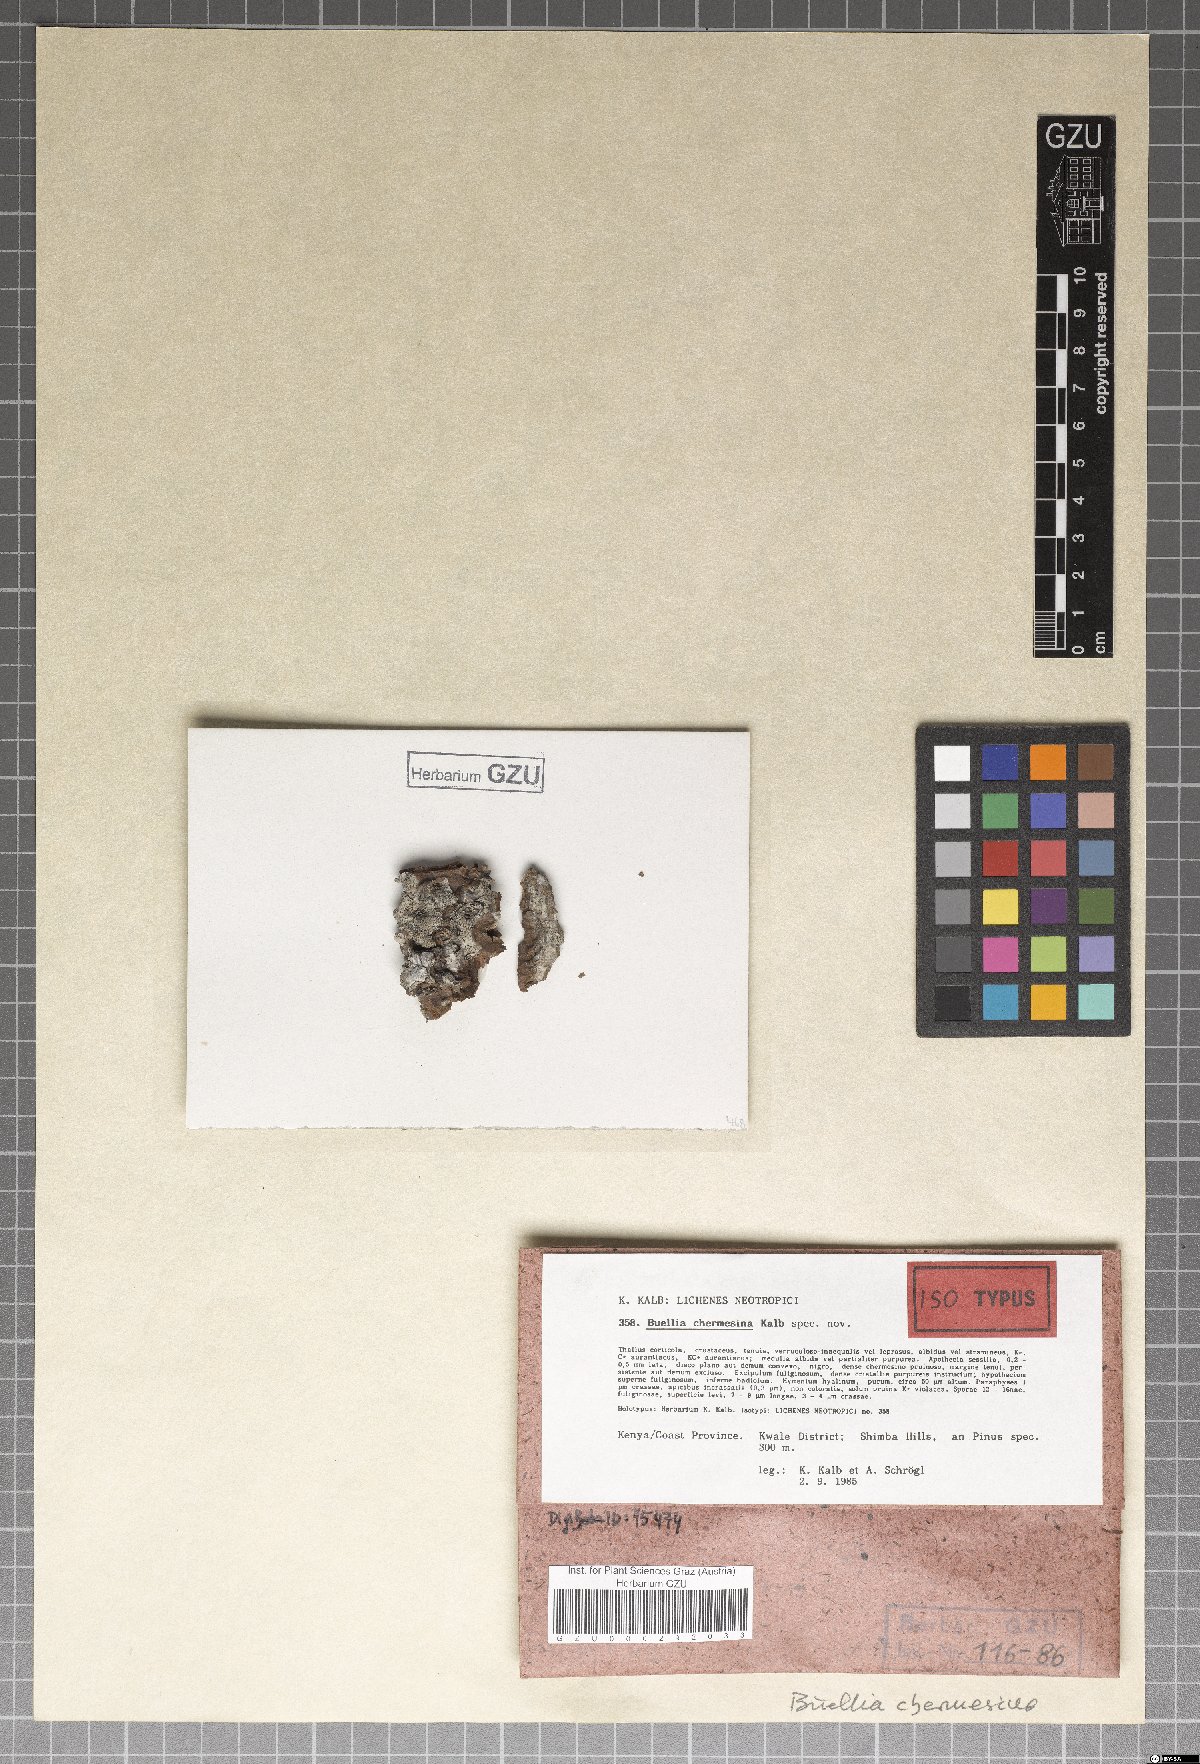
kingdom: Fungi
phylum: Ascomycota
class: Lecanoromycetes
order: Caliciales
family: Caliciaceae
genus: Gassicurtia
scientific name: Gassicurtia chermesina
